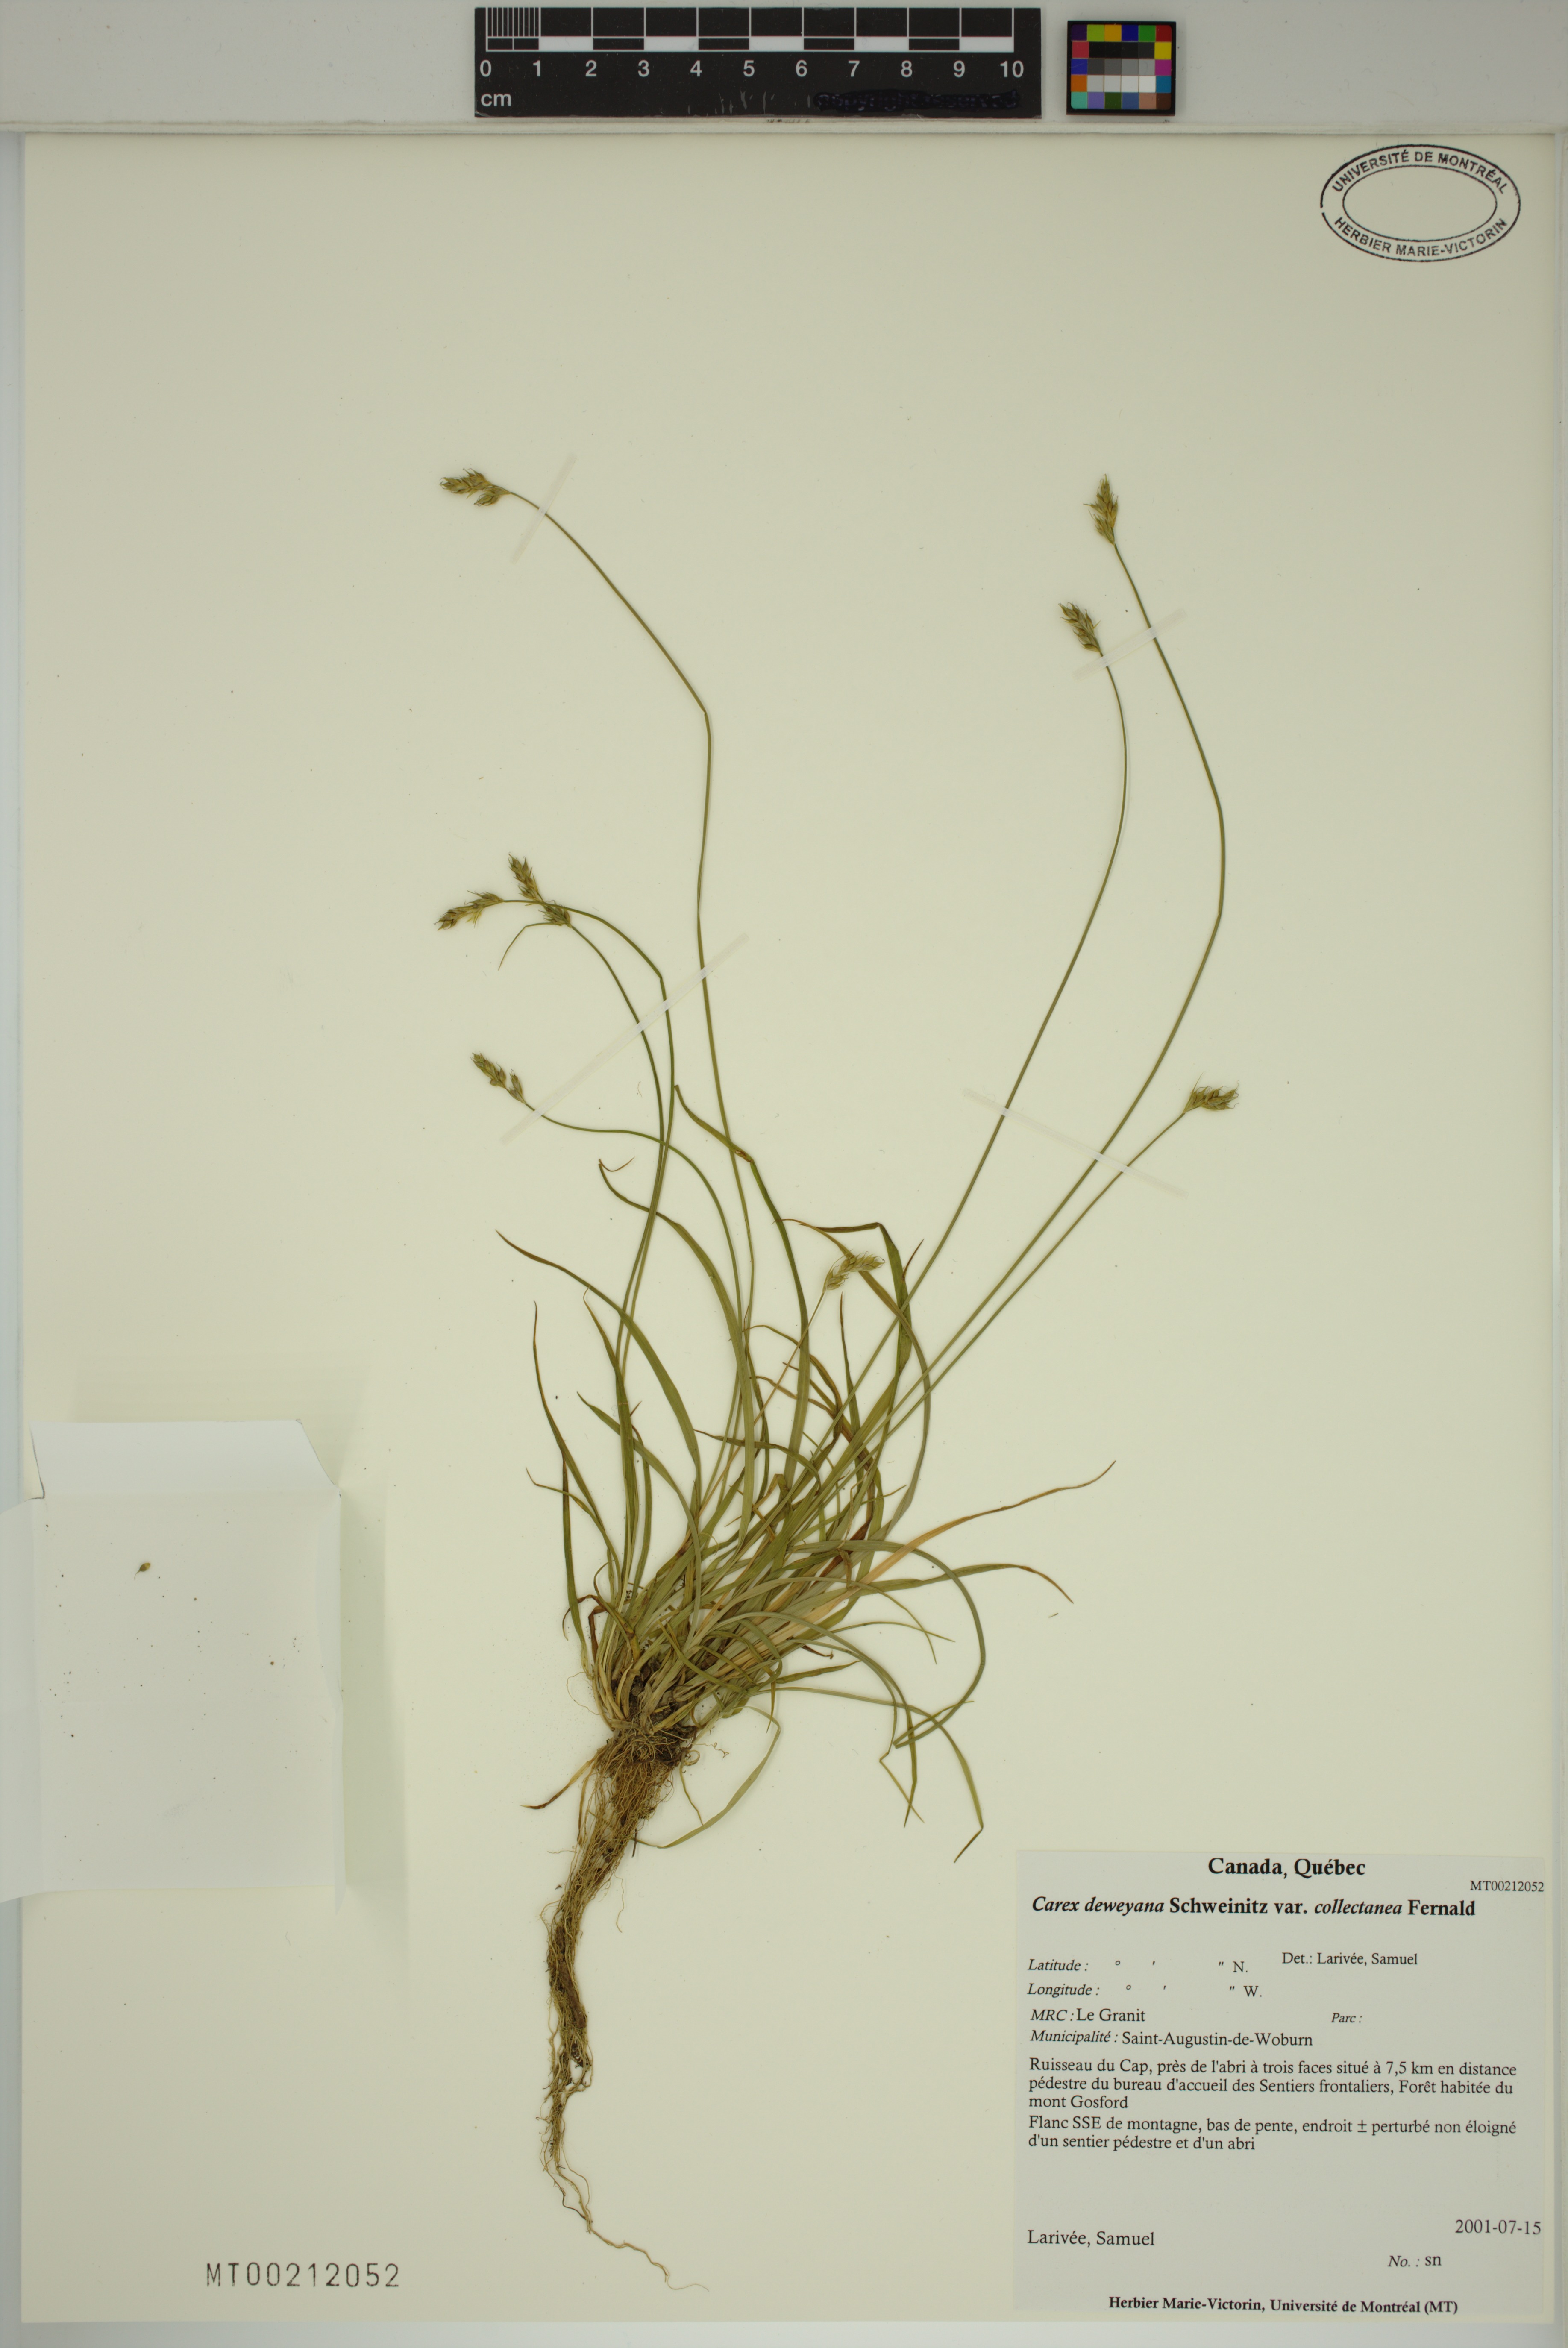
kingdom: Plantae
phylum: Tracheophyta
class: Liliopsida
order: Poales
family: Cyperaceae
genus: Carex
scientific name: Carex deweyana
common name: Dewey's sedge
